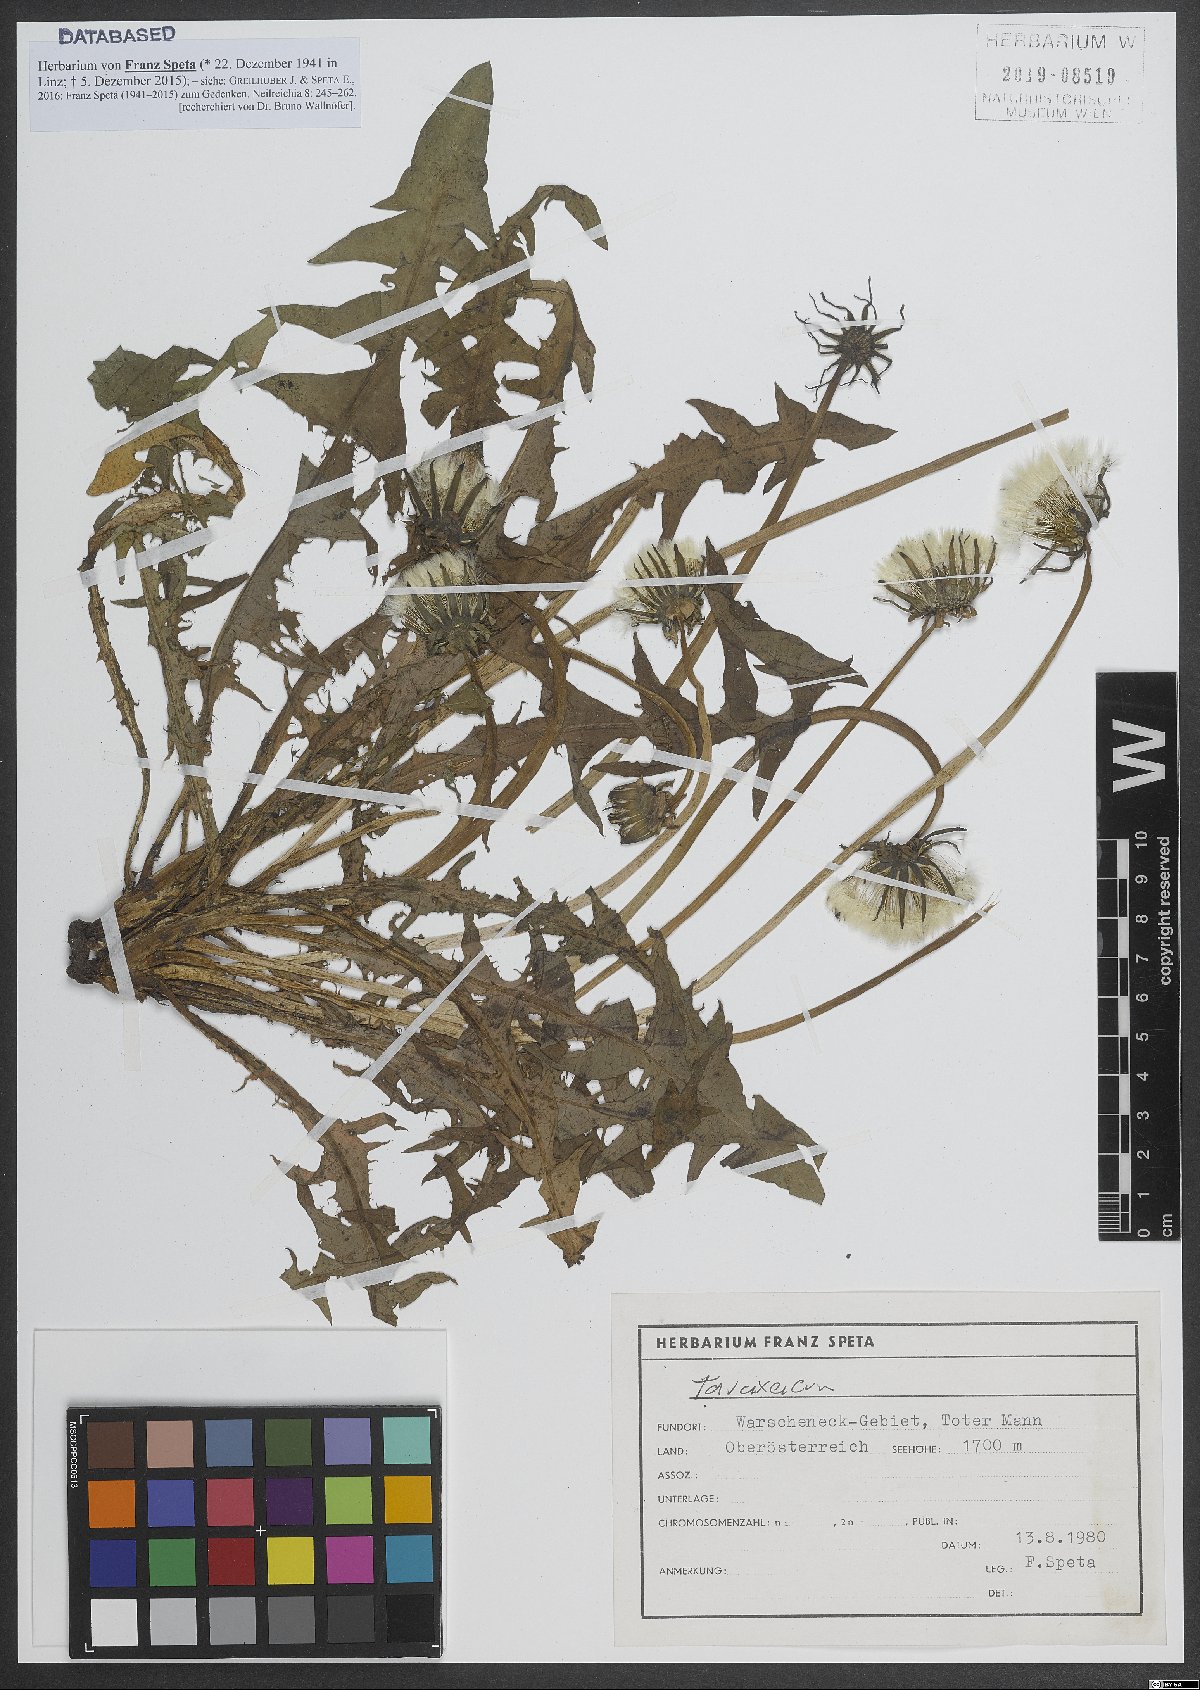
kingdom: Plantae
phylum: Tracheophyta
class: Magnoliopsida
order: Asterales
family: Asteraceae
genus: Taraxacum
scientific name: Taraxacum
